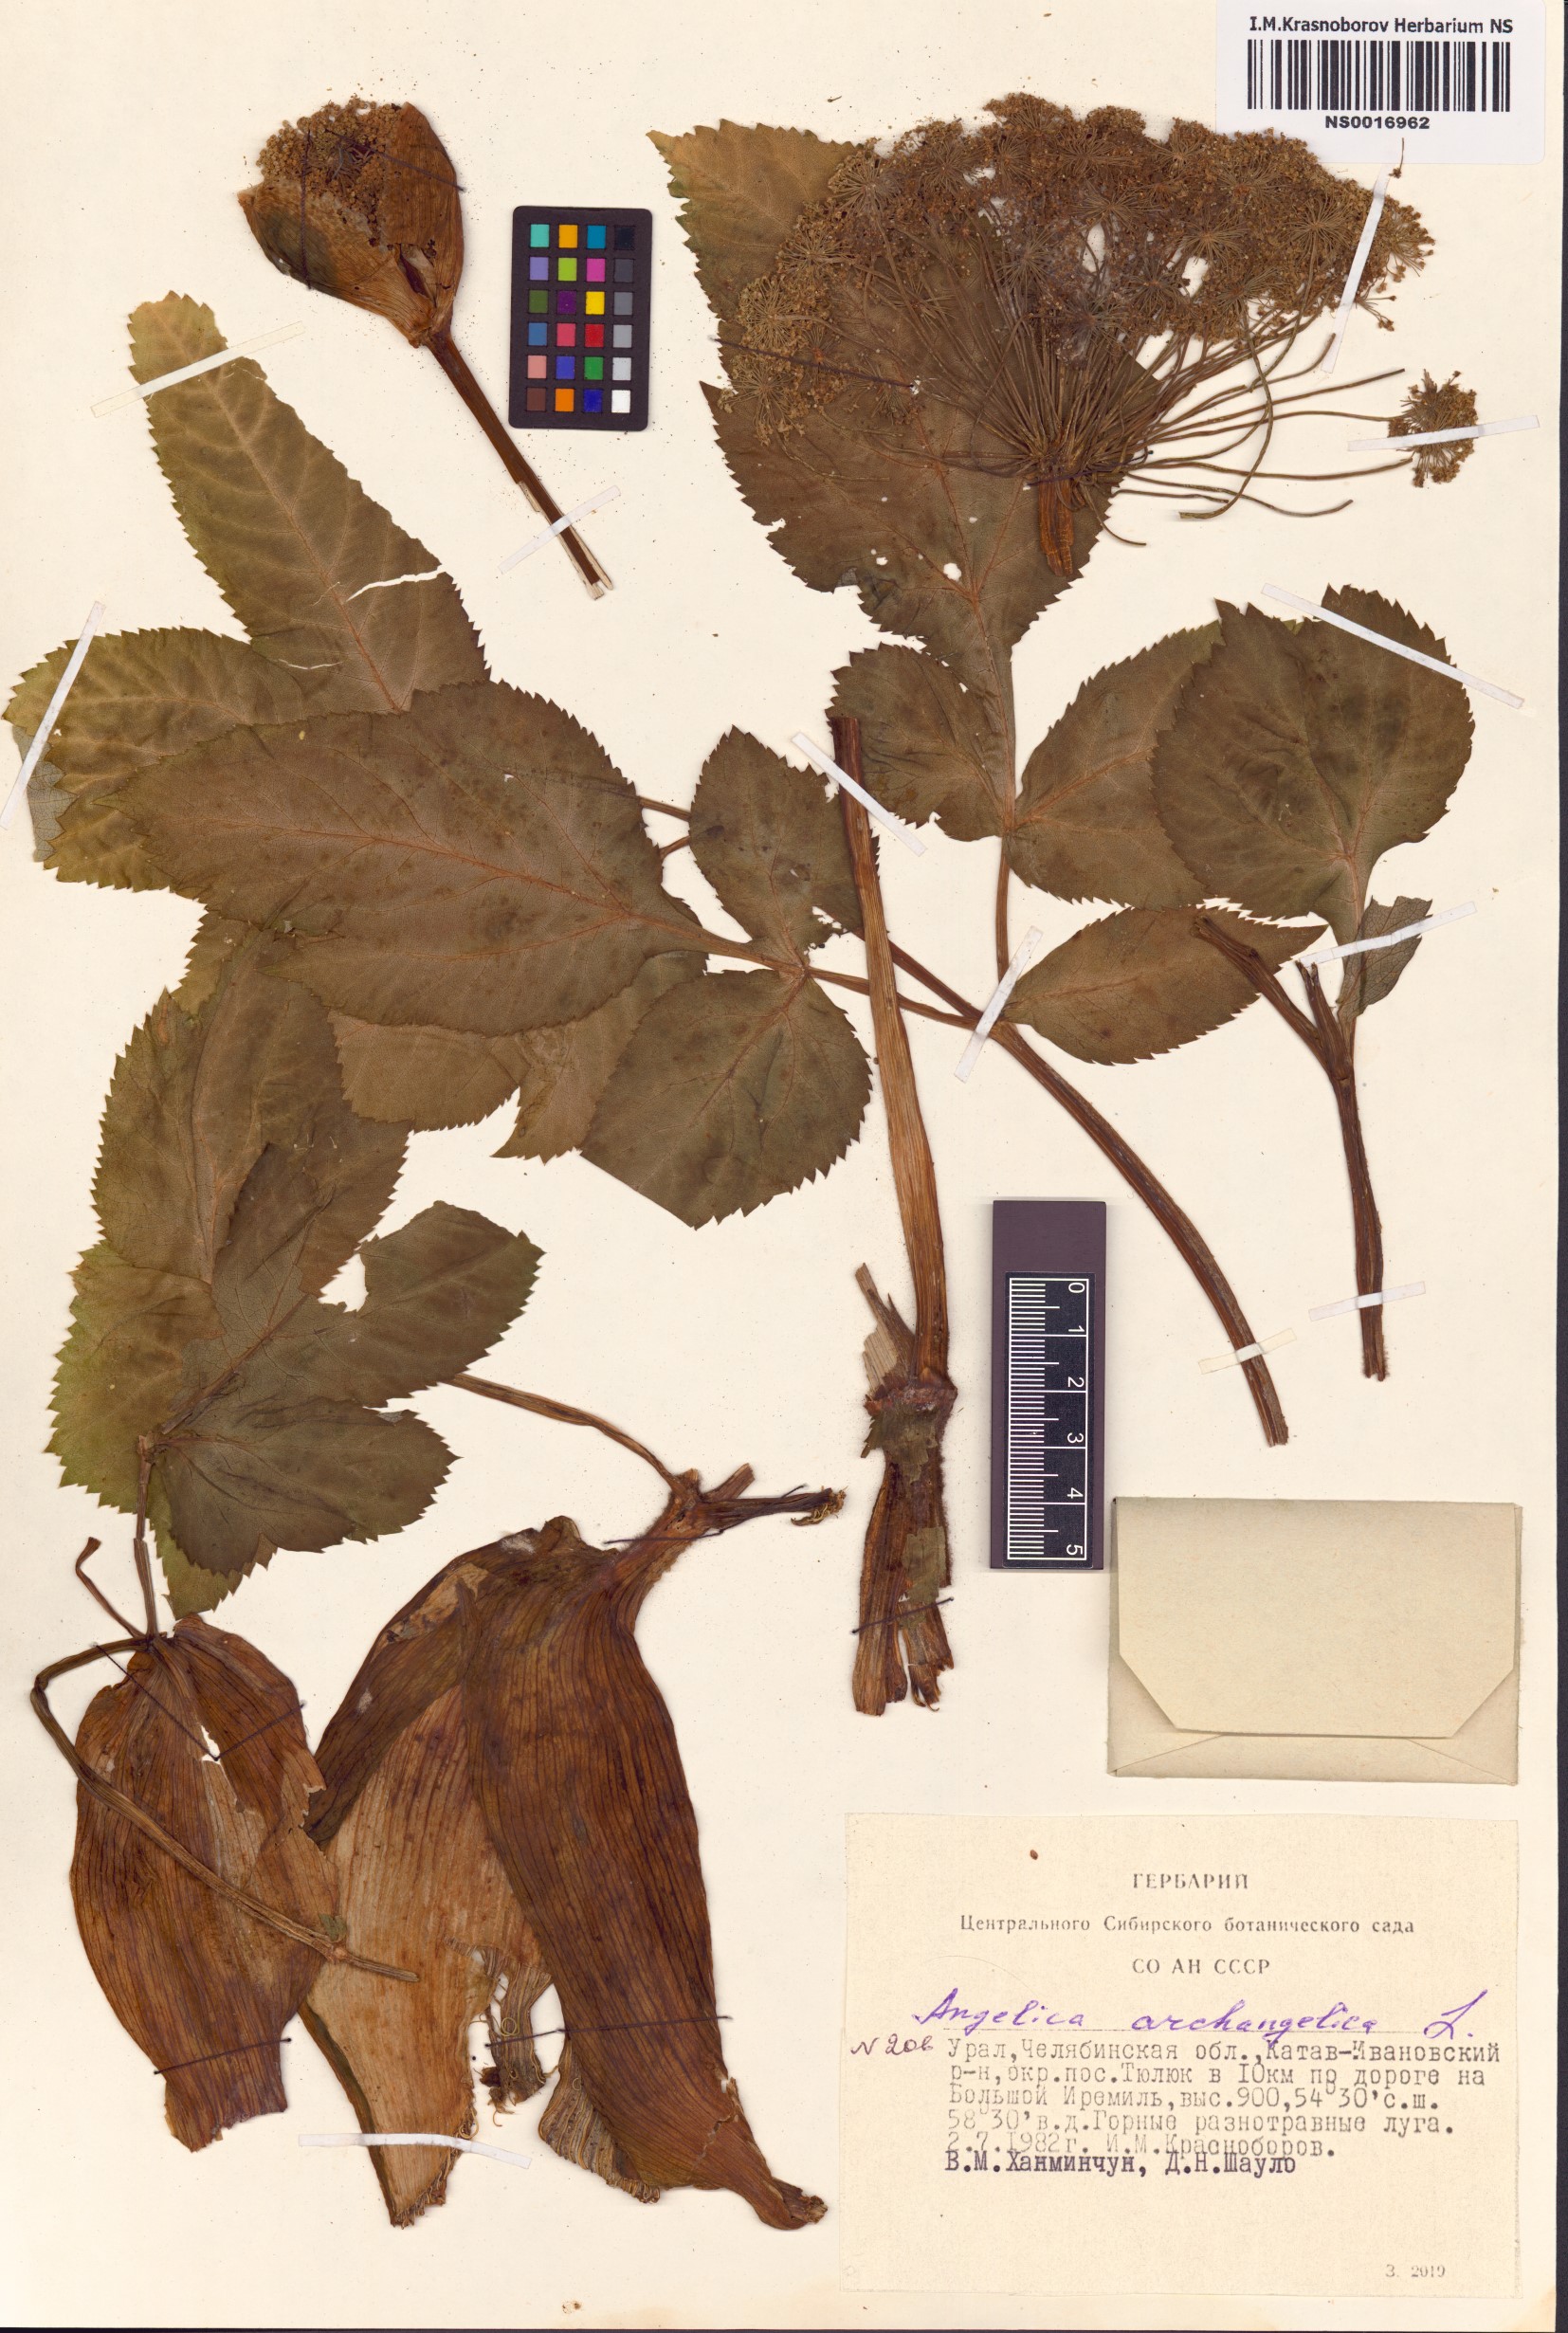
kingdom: Plantae
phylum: Tracheophyta
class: Magnoliopsida
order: Apiales
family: Apiaceae
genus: Angelica
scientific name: Angelica archangelica
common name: Garden angelica
